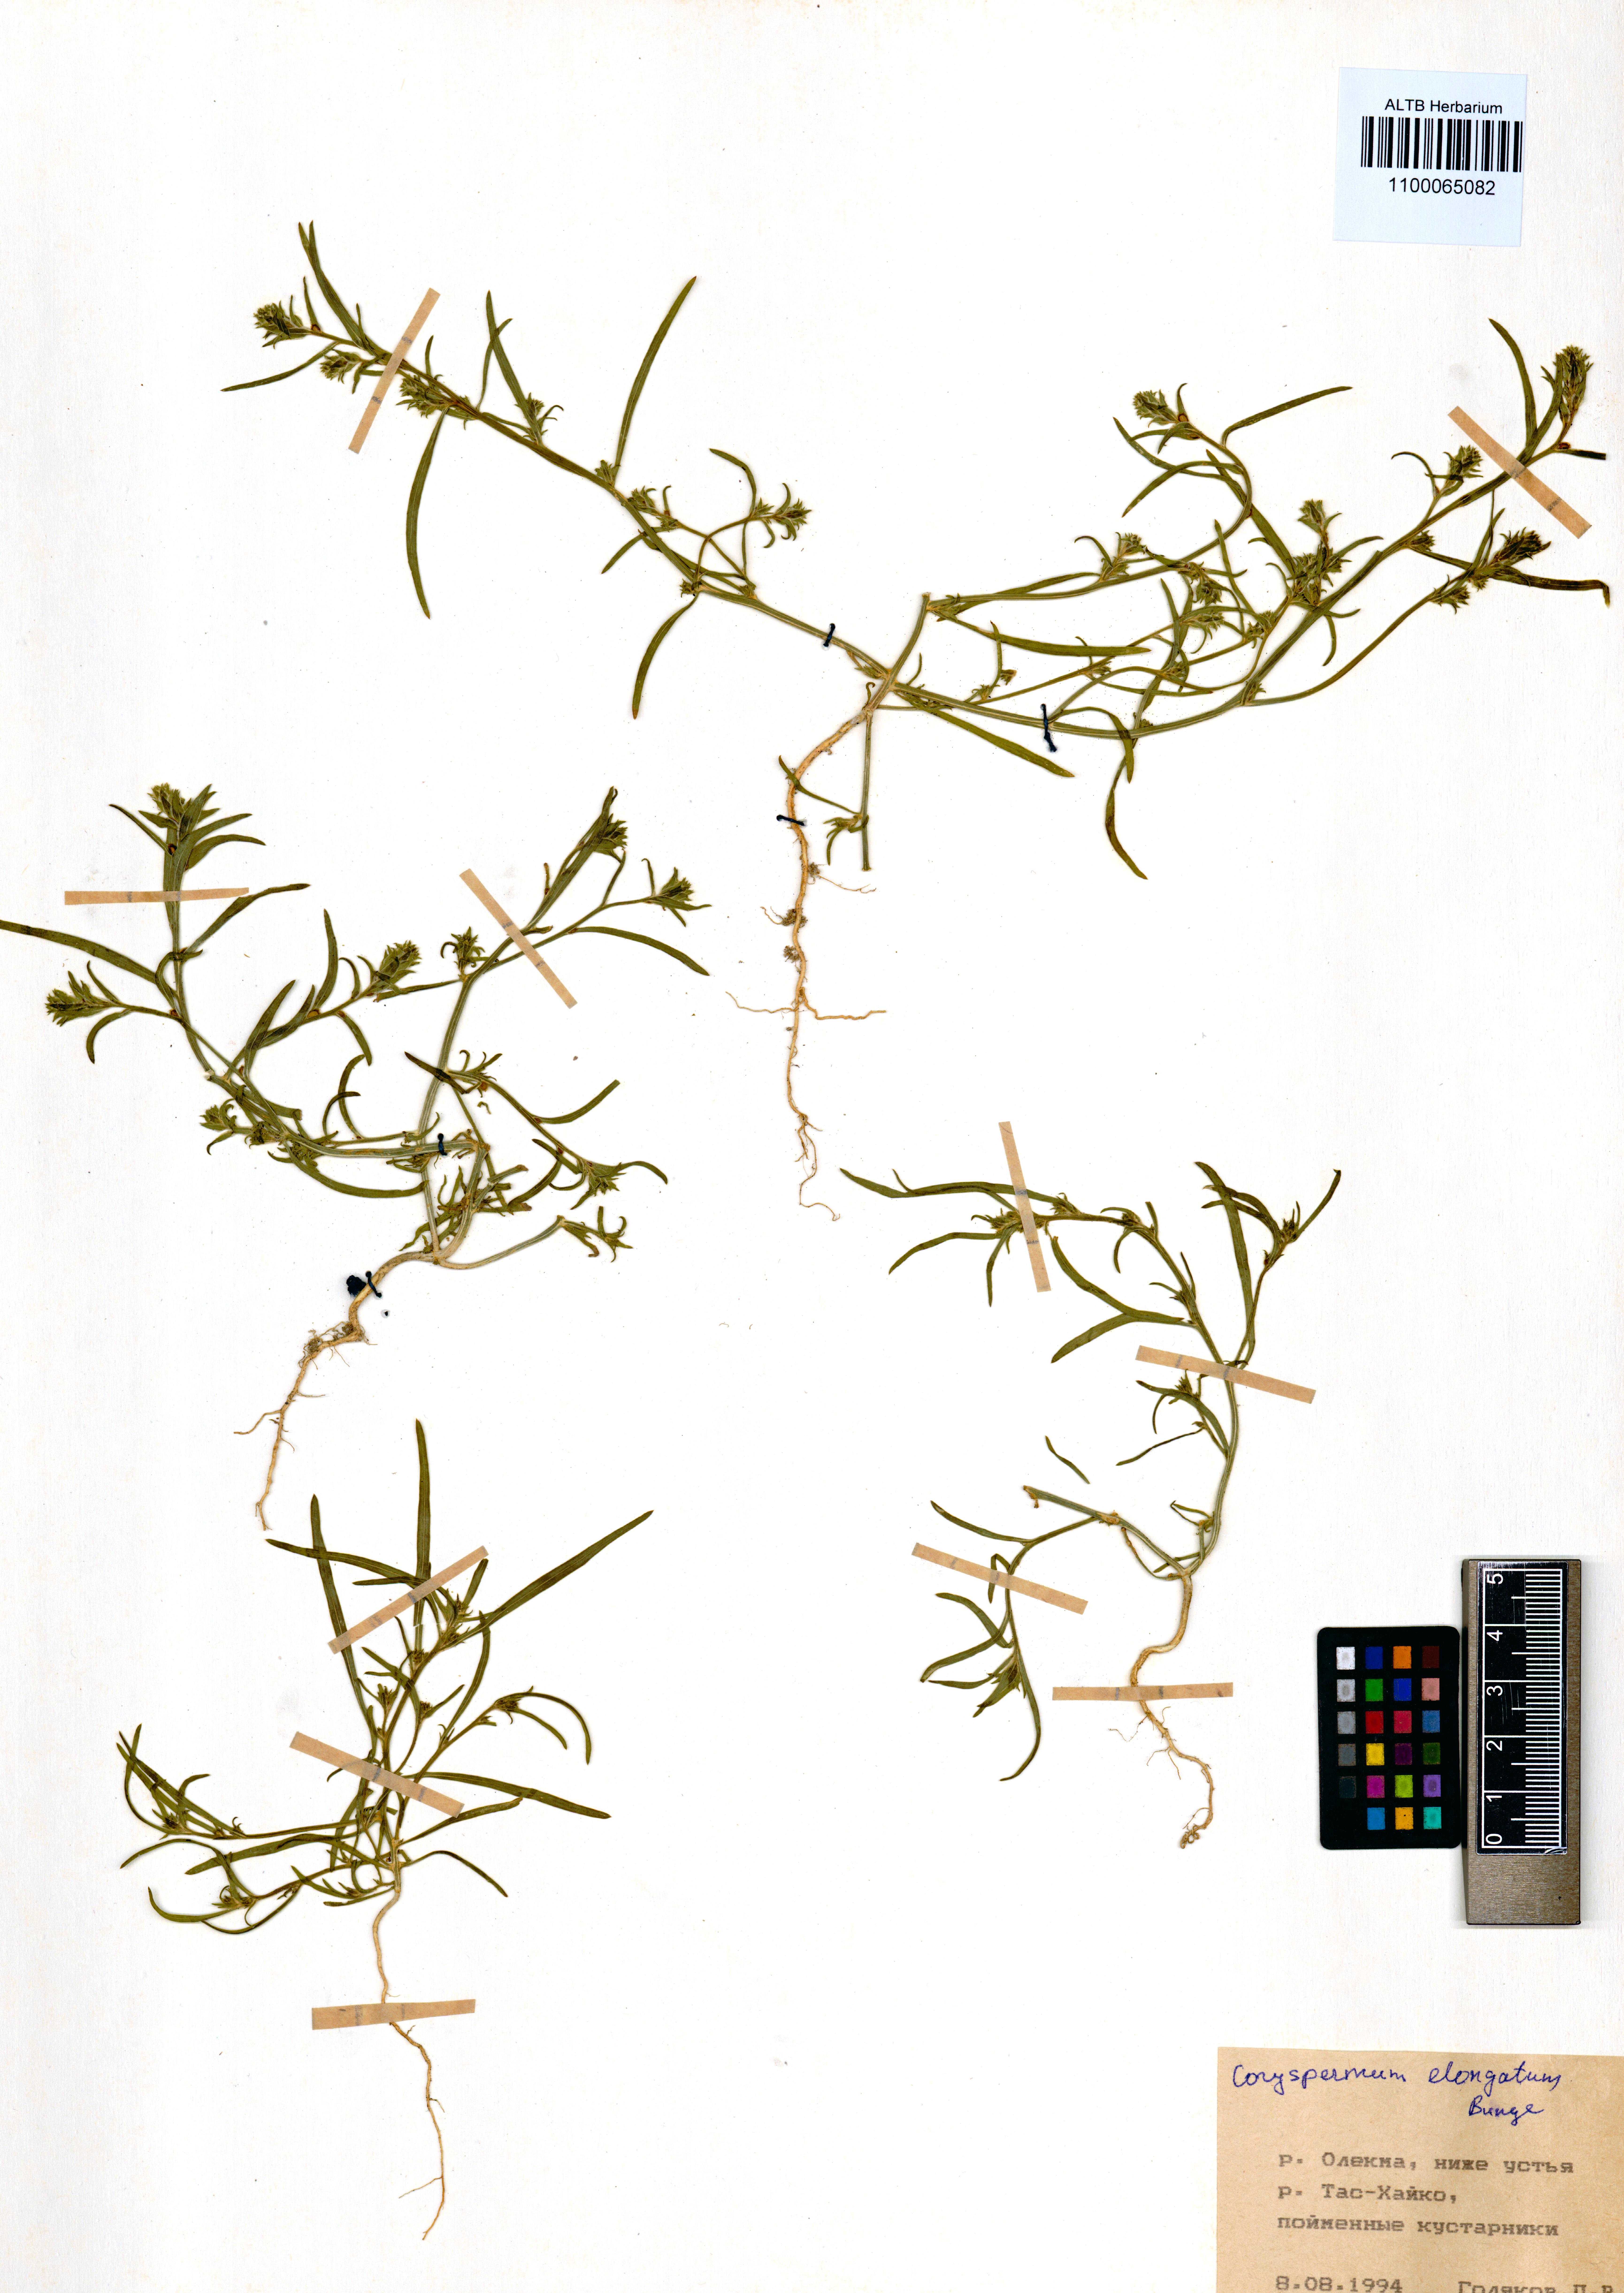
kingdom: Plantae
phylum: Tracheophyta
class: Magnoliopsida
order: Caryophyllales
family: Amaranthaceae
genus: Corispermum
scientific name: Corispermum elongatum
